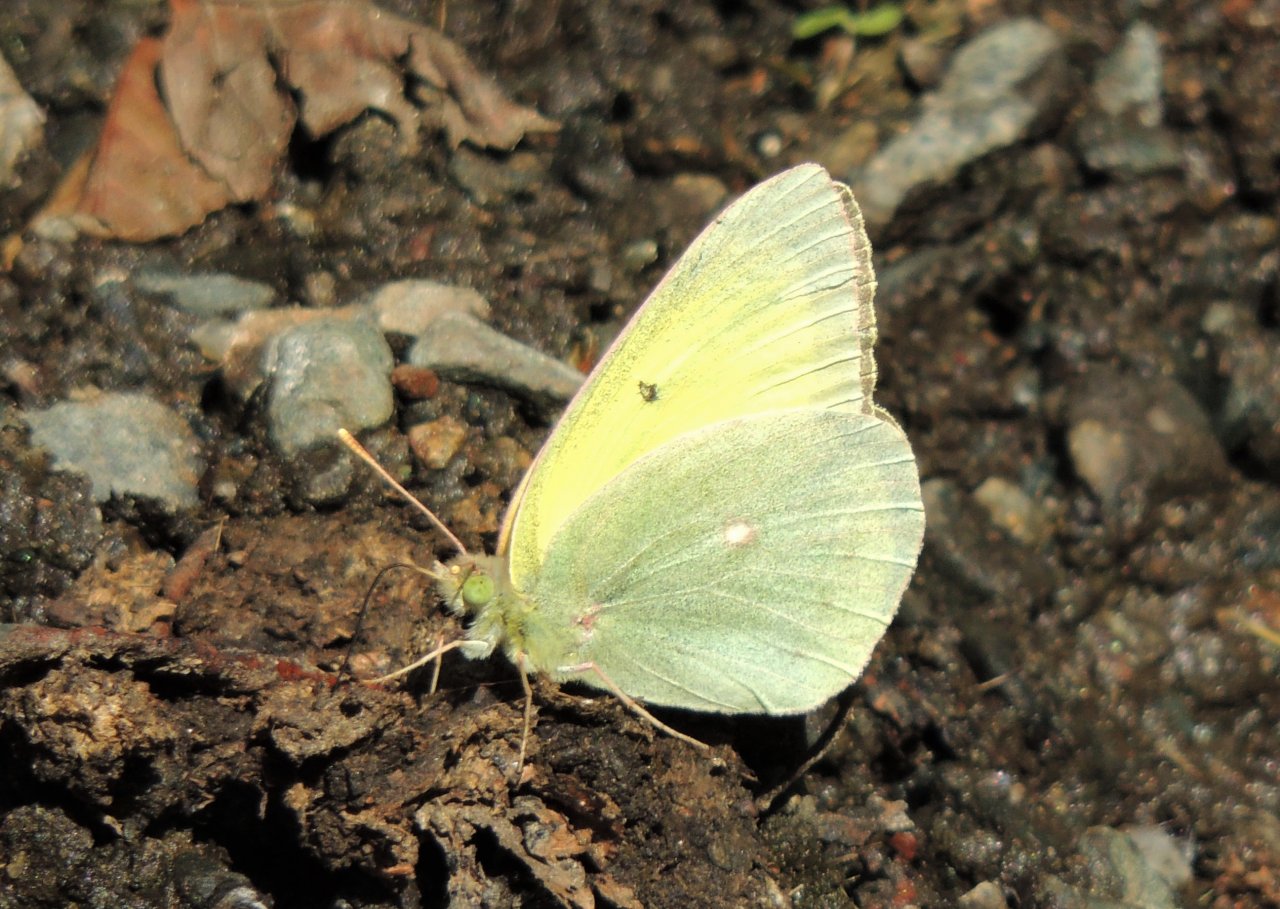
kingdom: Animalia
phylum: Arthropoda
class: Insecta
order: Lepidoptera
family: Pieridae
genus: Colias
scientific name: Colias alexandra
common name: Queen Alexandra's Sulphur
